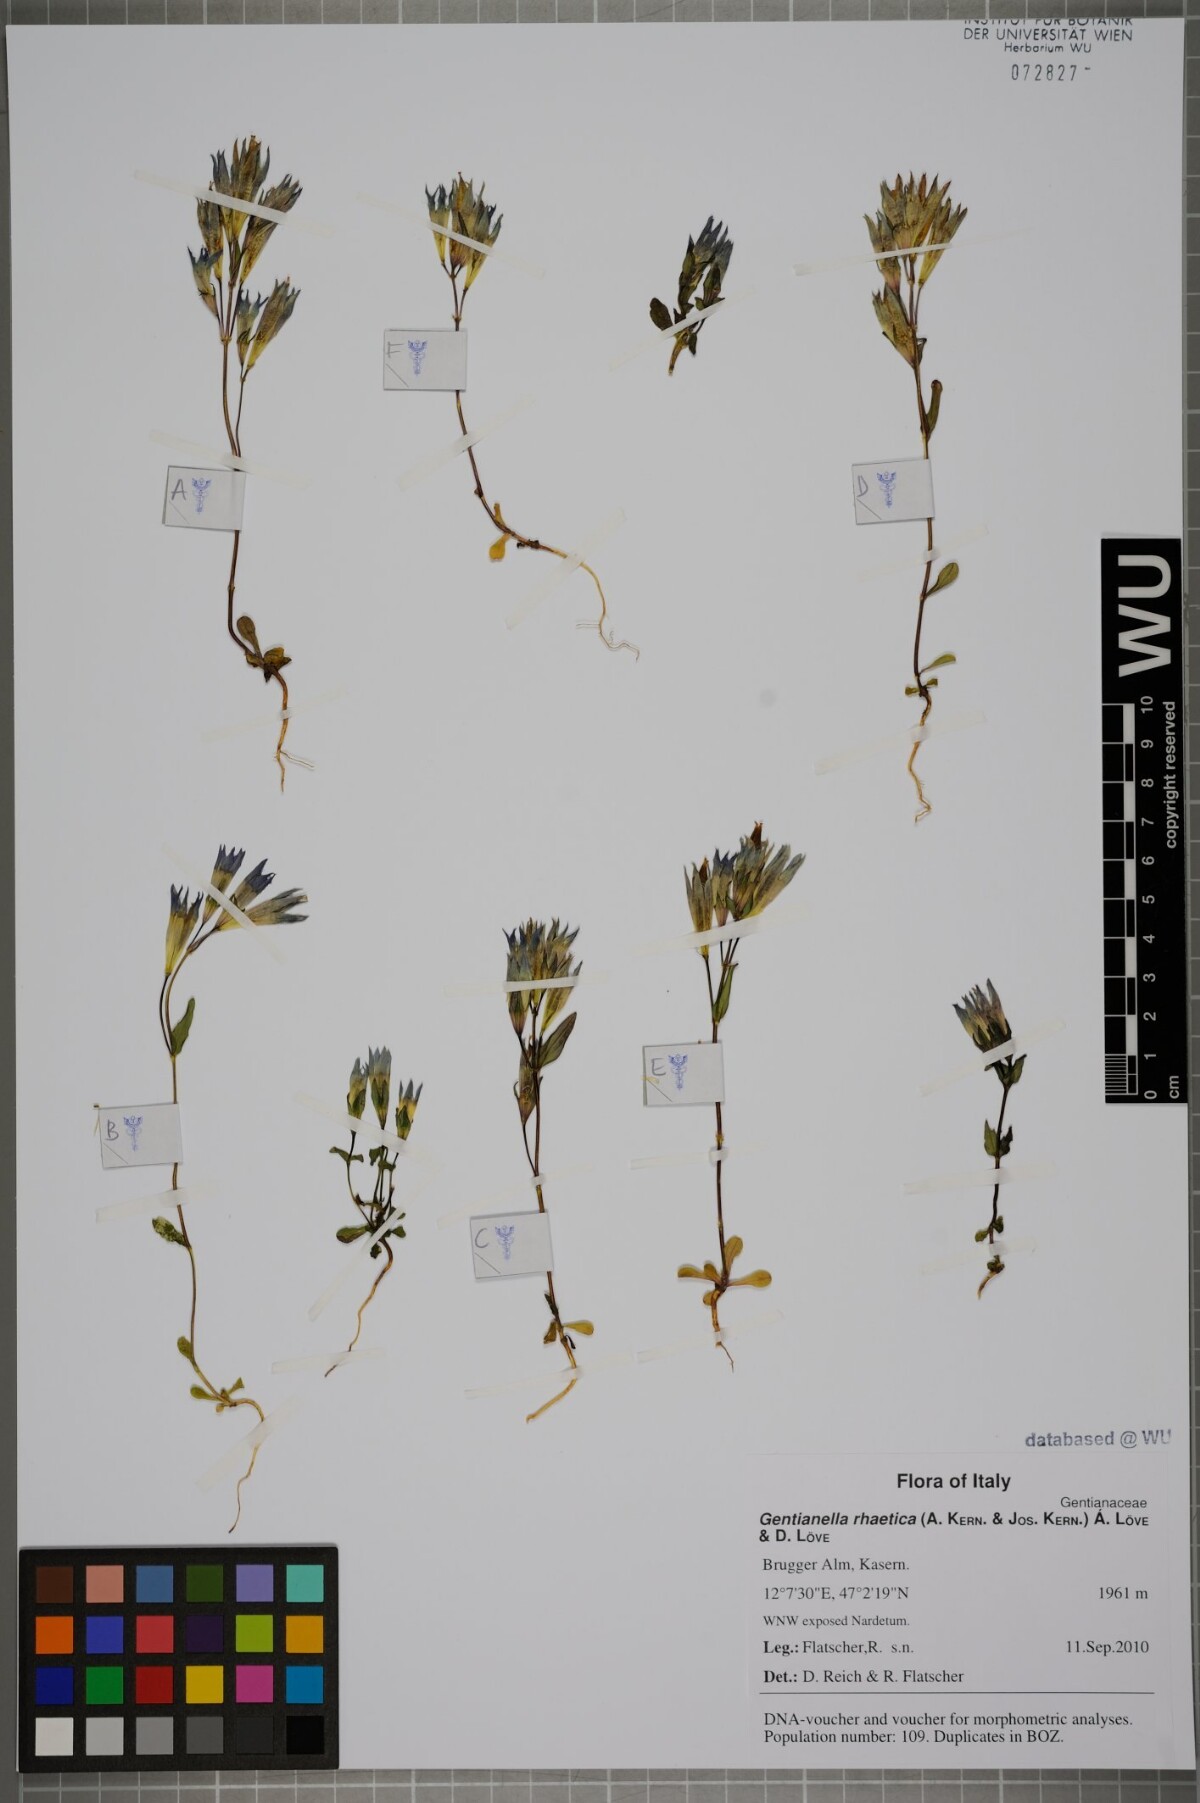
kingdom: Plantae
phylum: Tracheophyta
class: Magnoliopsida
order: Gentianales
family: Gentianaceae
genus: Gentianella
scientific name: Gentianella rhaetica
